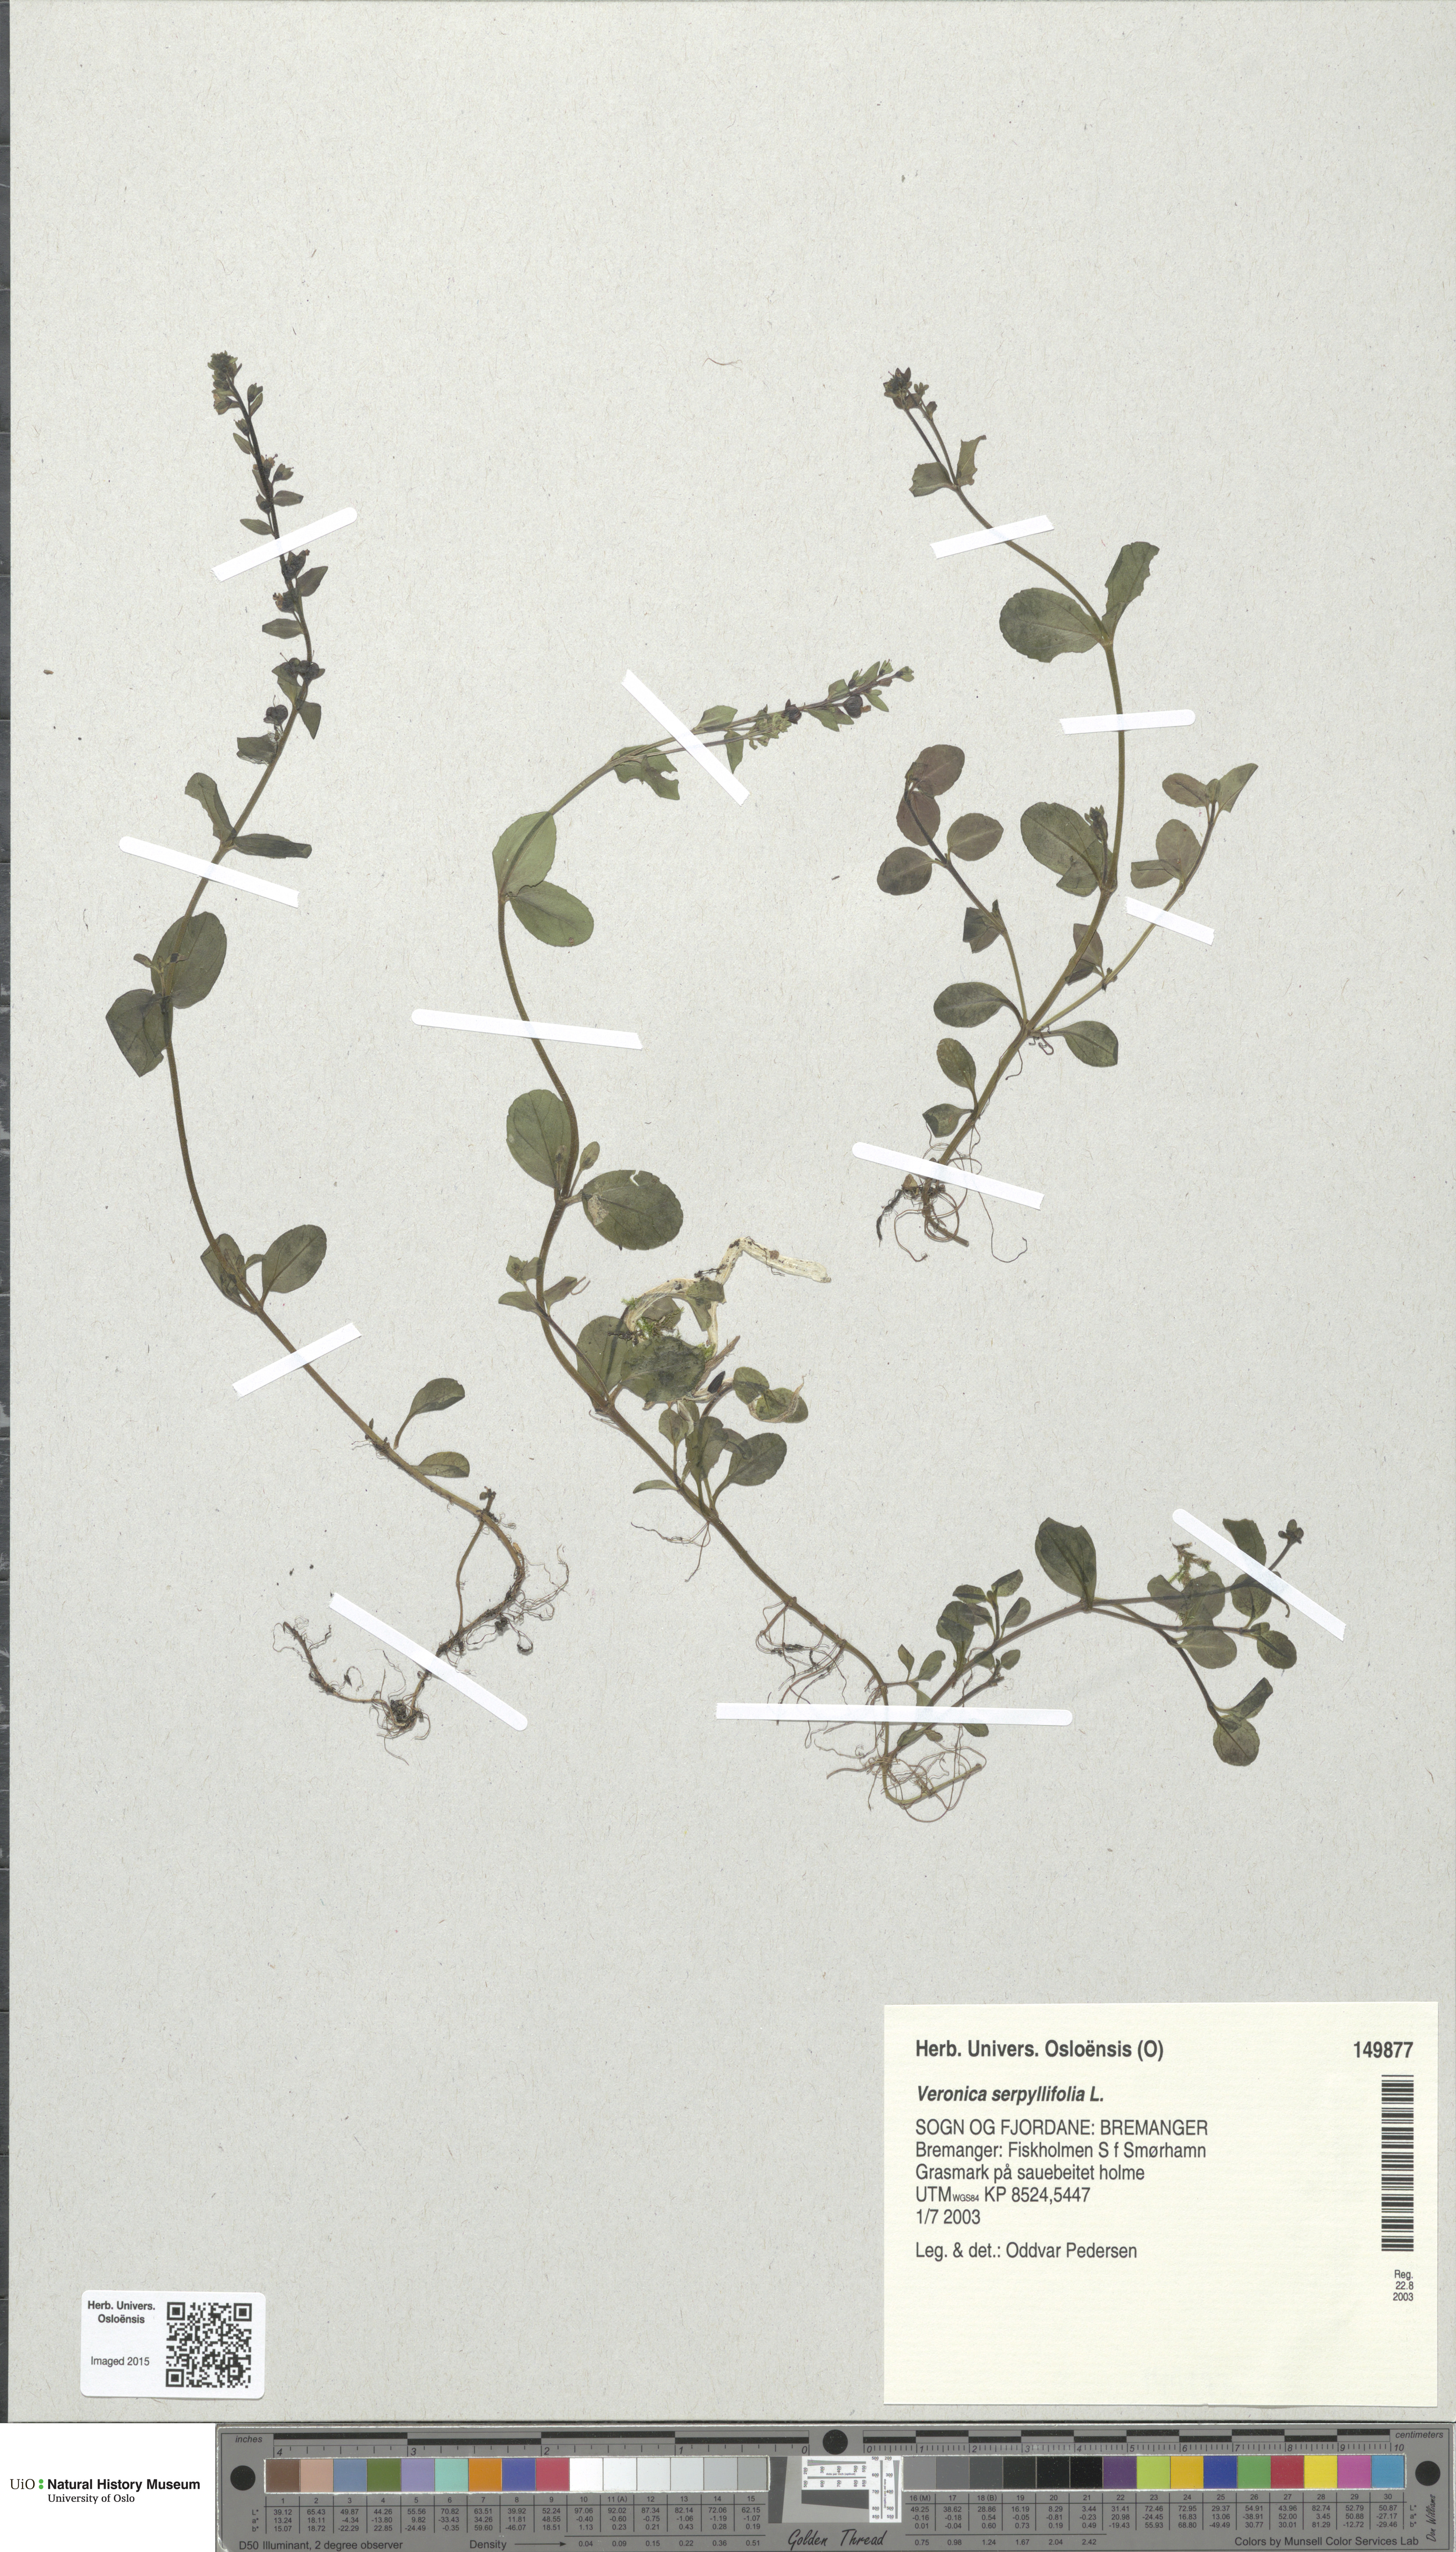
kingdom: Plantae
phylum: Tracheophyta
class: Magnoliopsida
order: Lamiales
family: Plantaginaceae
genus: Veronica
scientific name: Veronica serpyllifolia
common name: Thyme-leaved speedwell
